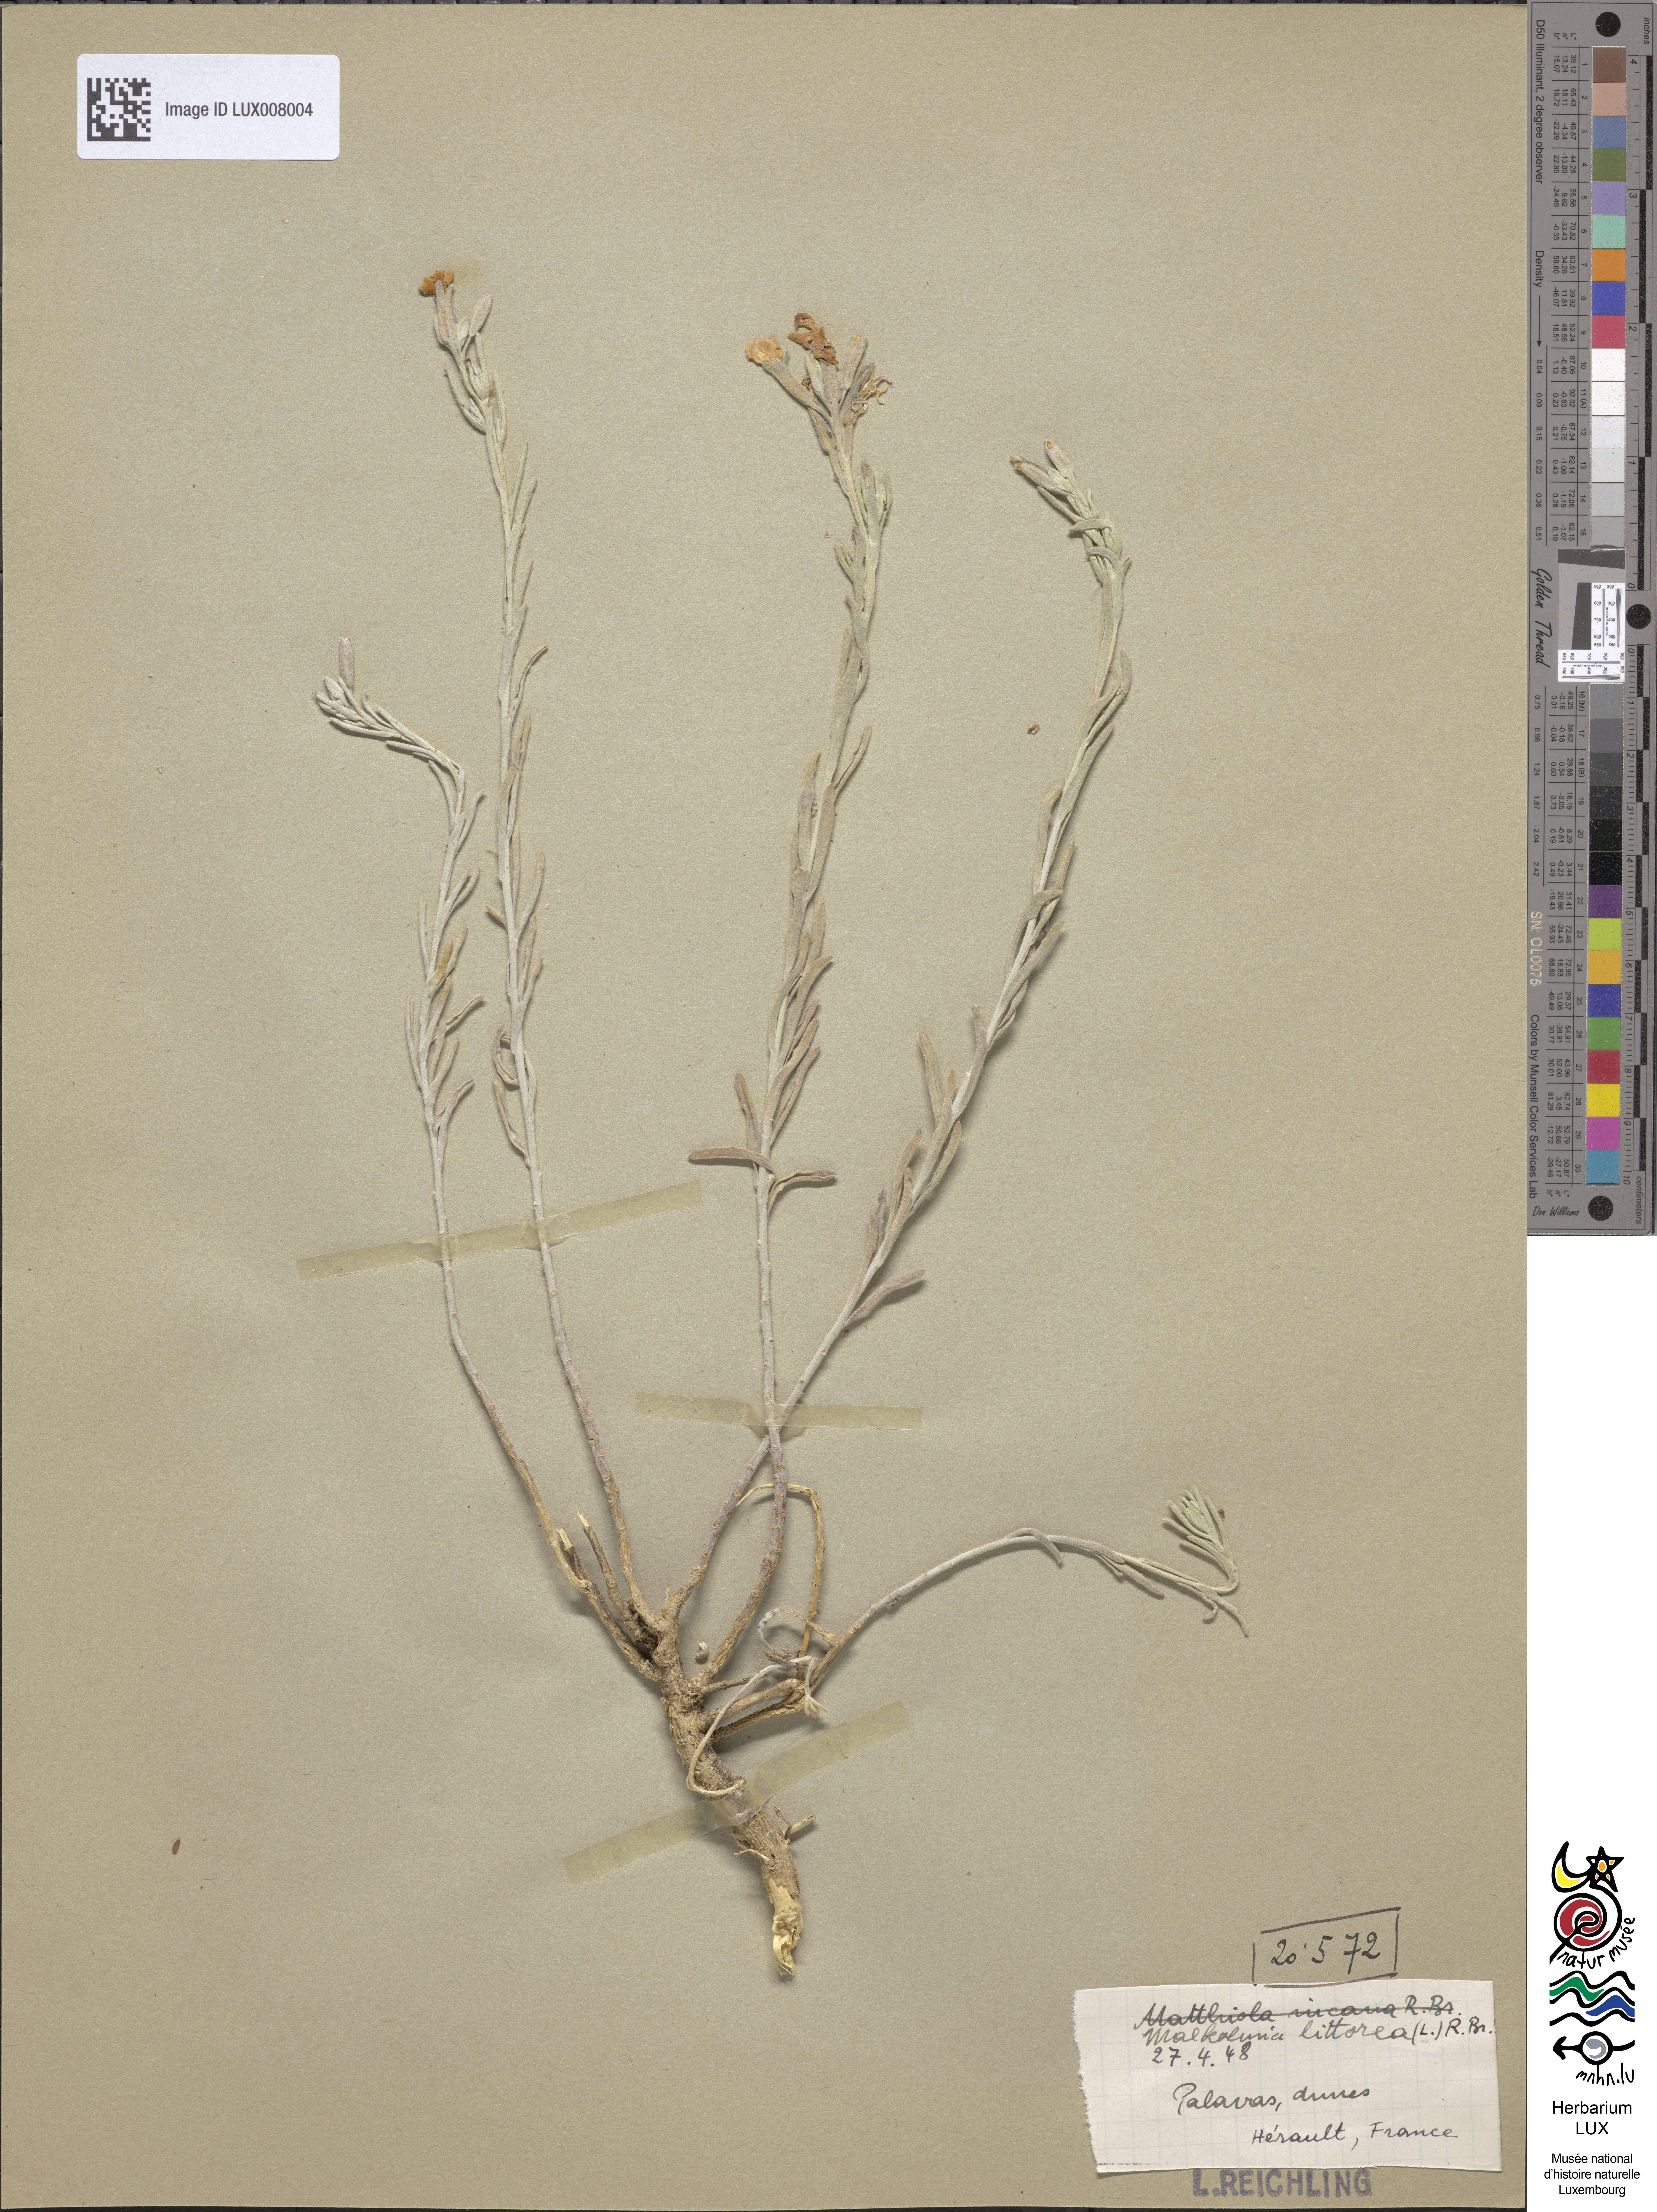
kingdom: Plantae
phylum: Tracheophyta
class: Magnoliopsida
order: Brassicales
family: Brassicaceae
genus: Marcuskochia
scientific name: Marcuskochia littorea
